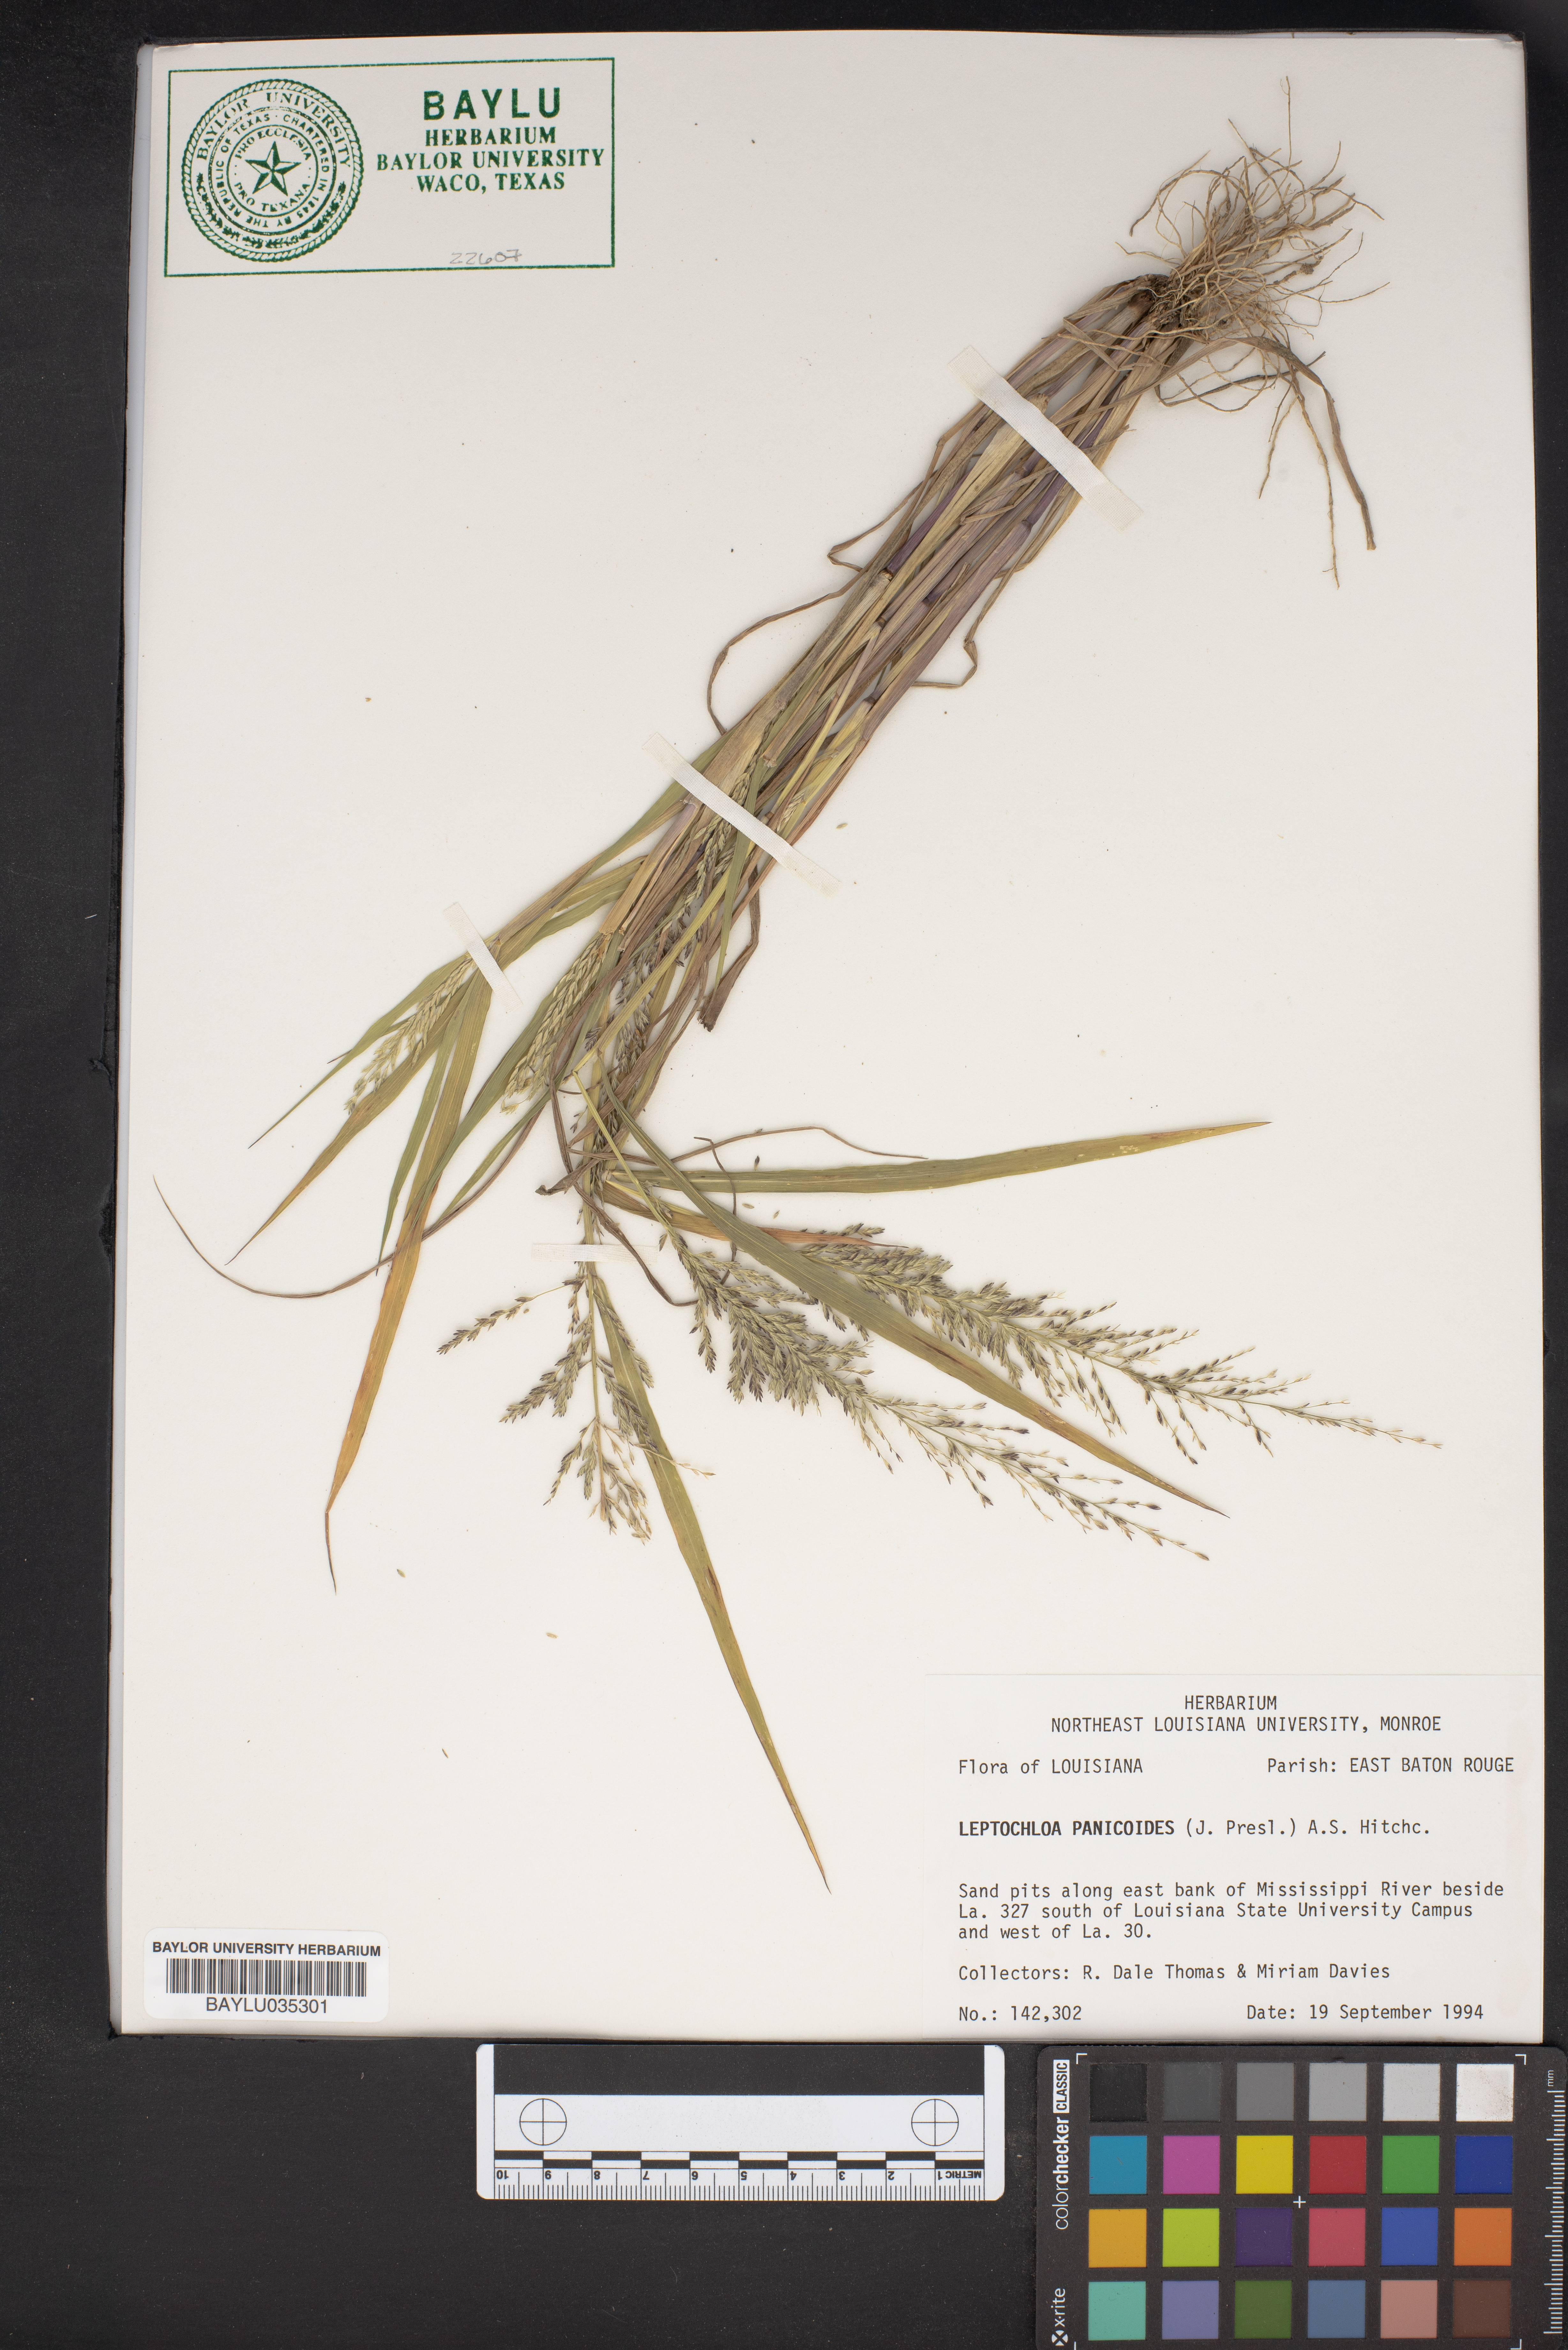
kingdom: Plantae
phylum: Tracheophyta
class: Liliopsida
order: Poales
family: Poaceae
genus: Arundinella
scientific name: Arundinella leptochloa
